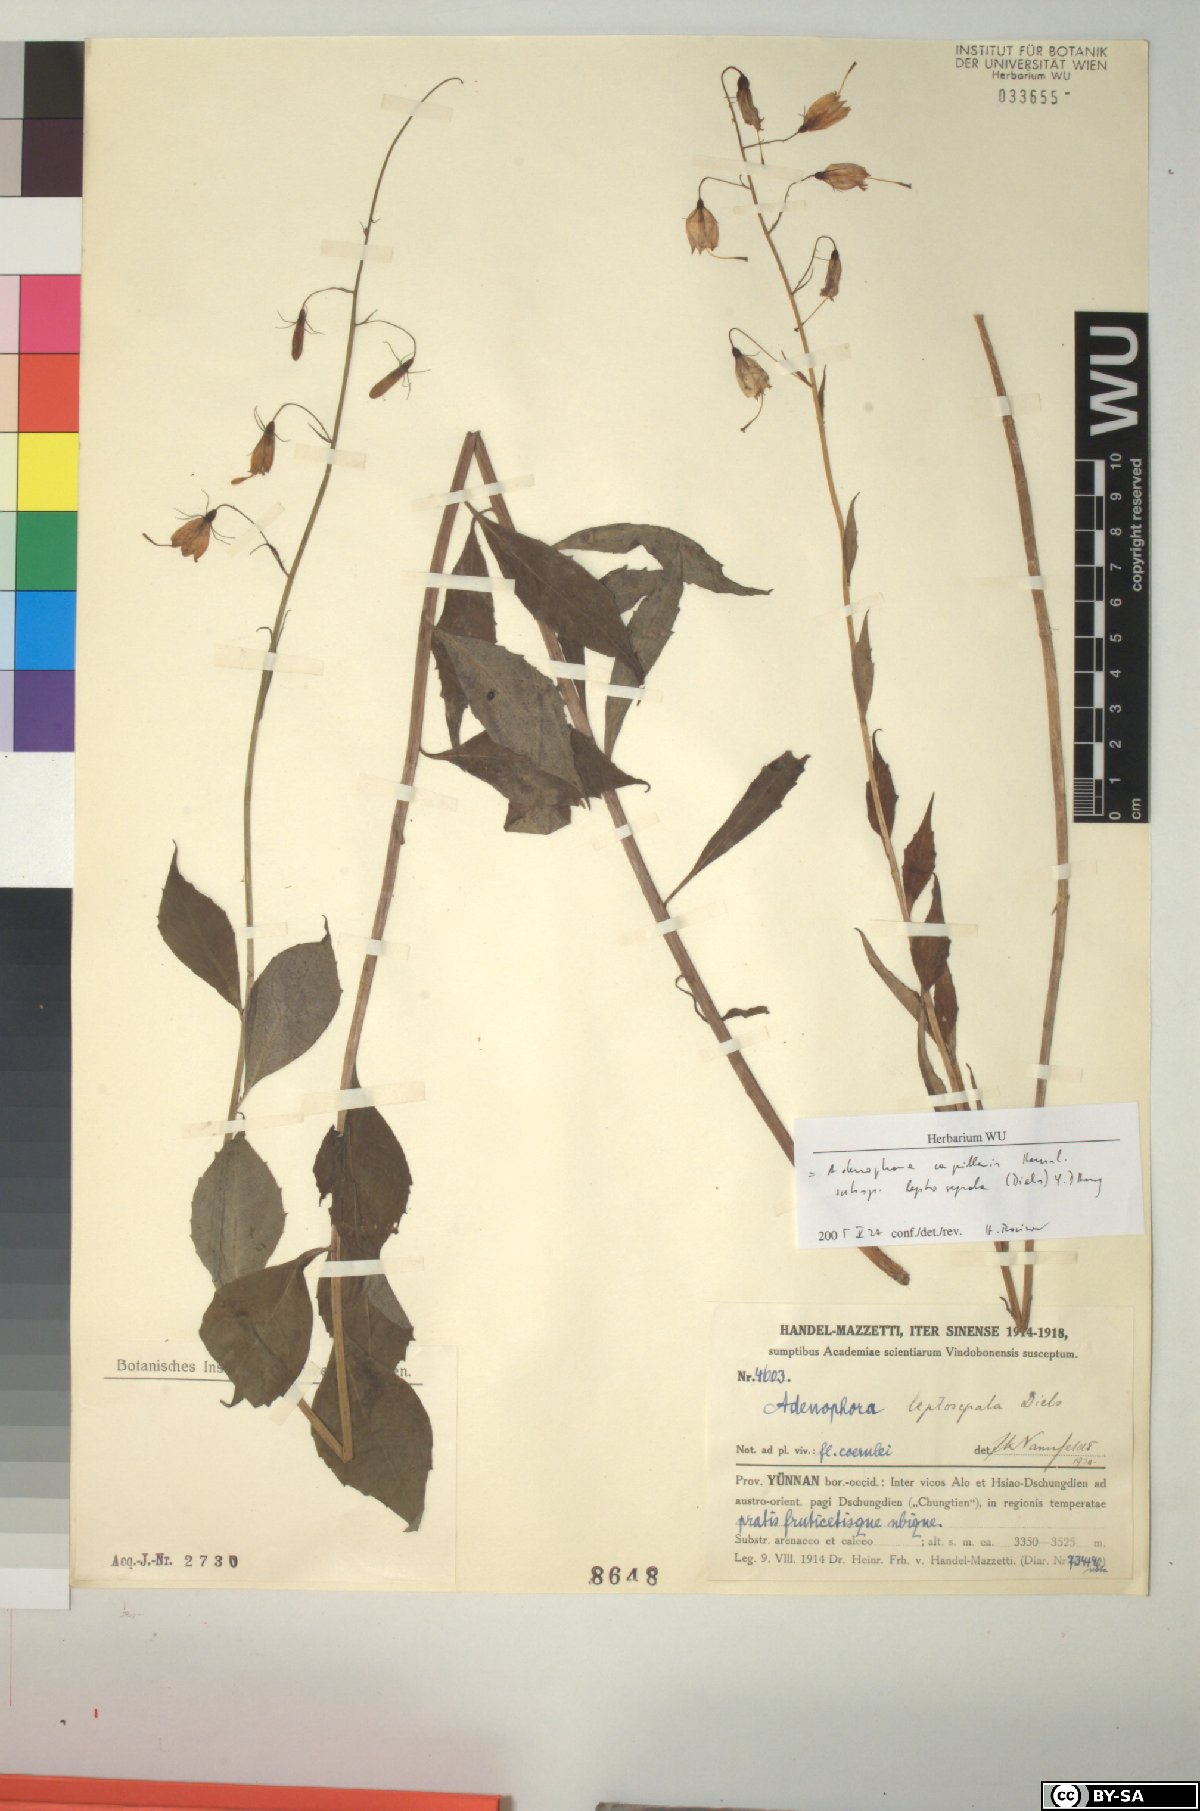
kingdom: Plantae
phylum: Tracheophyta
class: Magnoliopsida
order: Asterales
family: Campanulaceae
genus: Adenophora
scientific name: Adenophora capillaris
